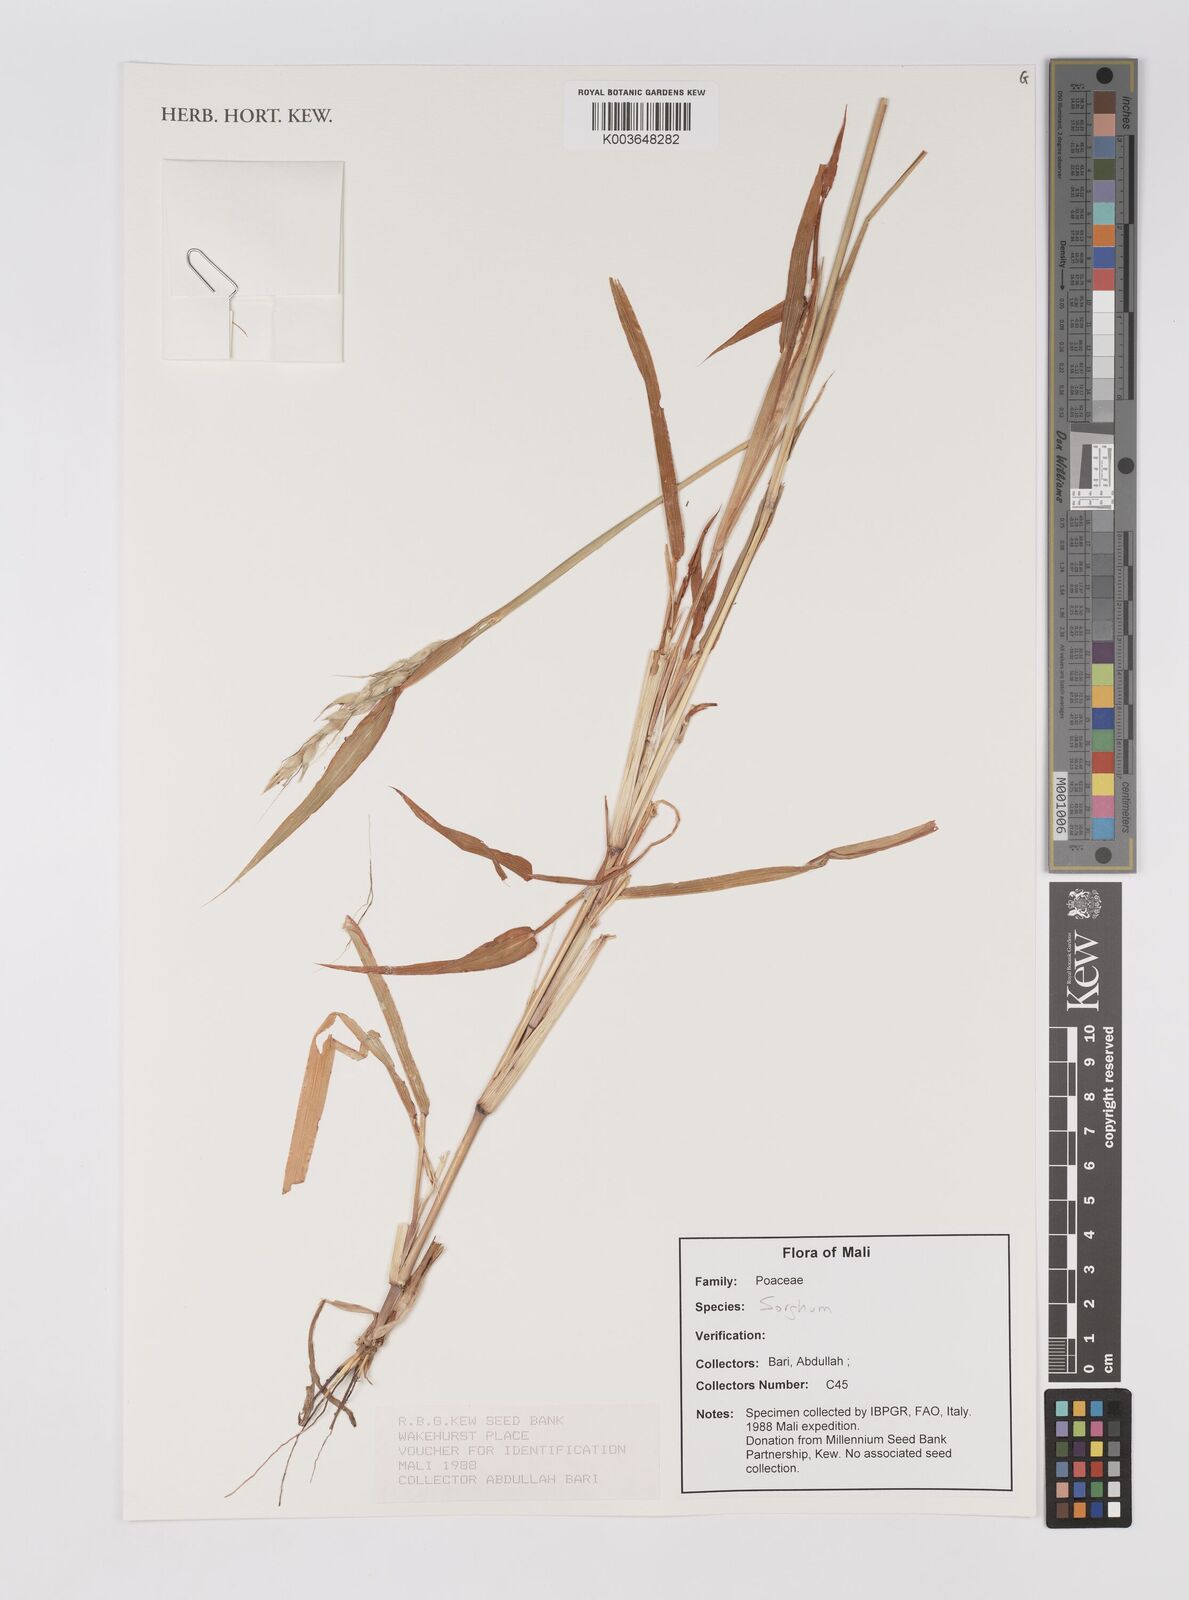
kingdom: Plantae
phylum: Tracheophyta
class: Liliopsida
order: Poales
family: Poaceae
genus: Sorghum
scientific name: Sorghum
